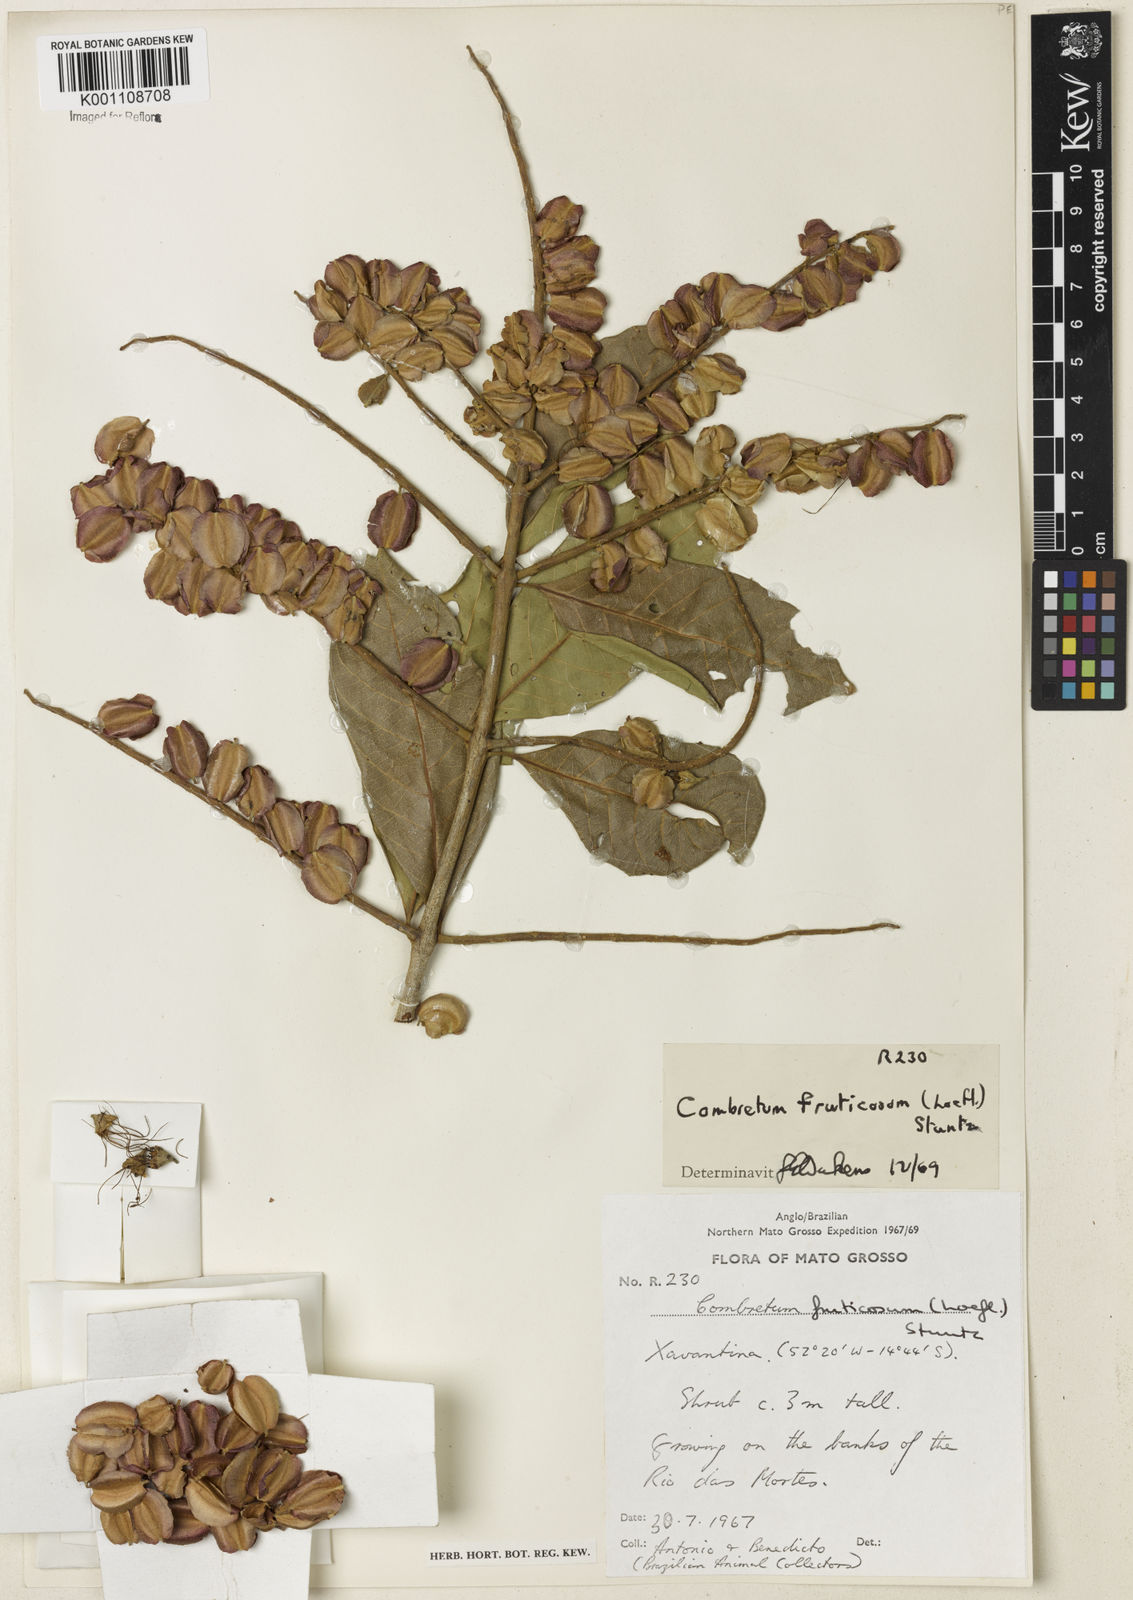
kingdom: Plantae
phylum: Tracheophyta
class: Magnoliopsida
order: Myrtales
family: Combretaceae
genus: Combretum
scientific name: Combretum fruticosum
